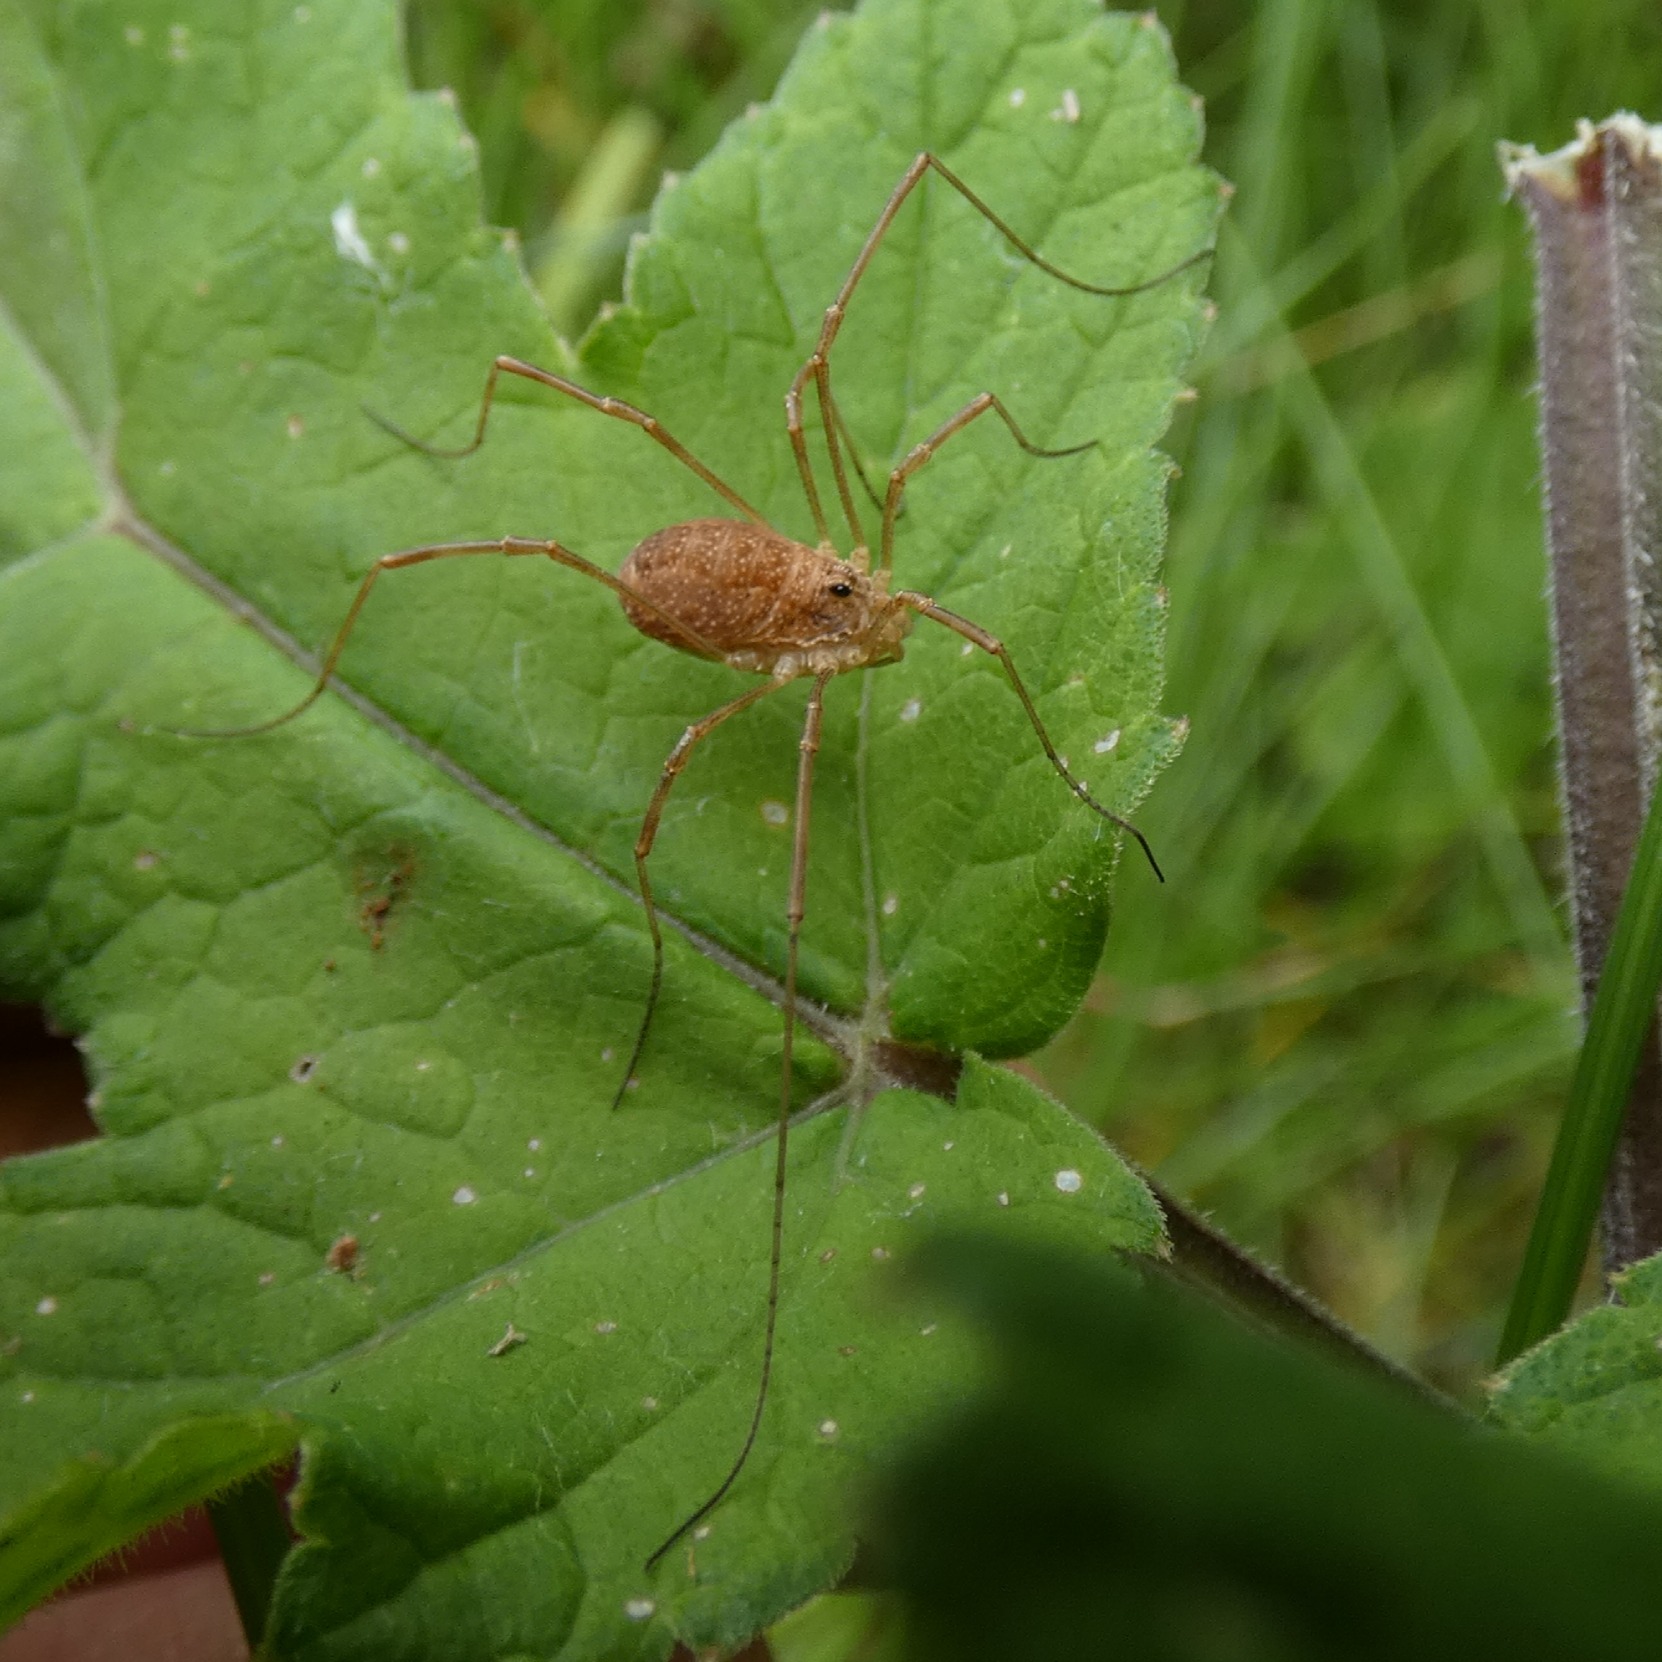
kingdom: Animalia
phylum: Arthropoda
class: Arachnida
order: Opiliones
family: Phalangiidae
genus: Rilaena
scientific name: Rilaena triangularis
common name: Forårsmejer
